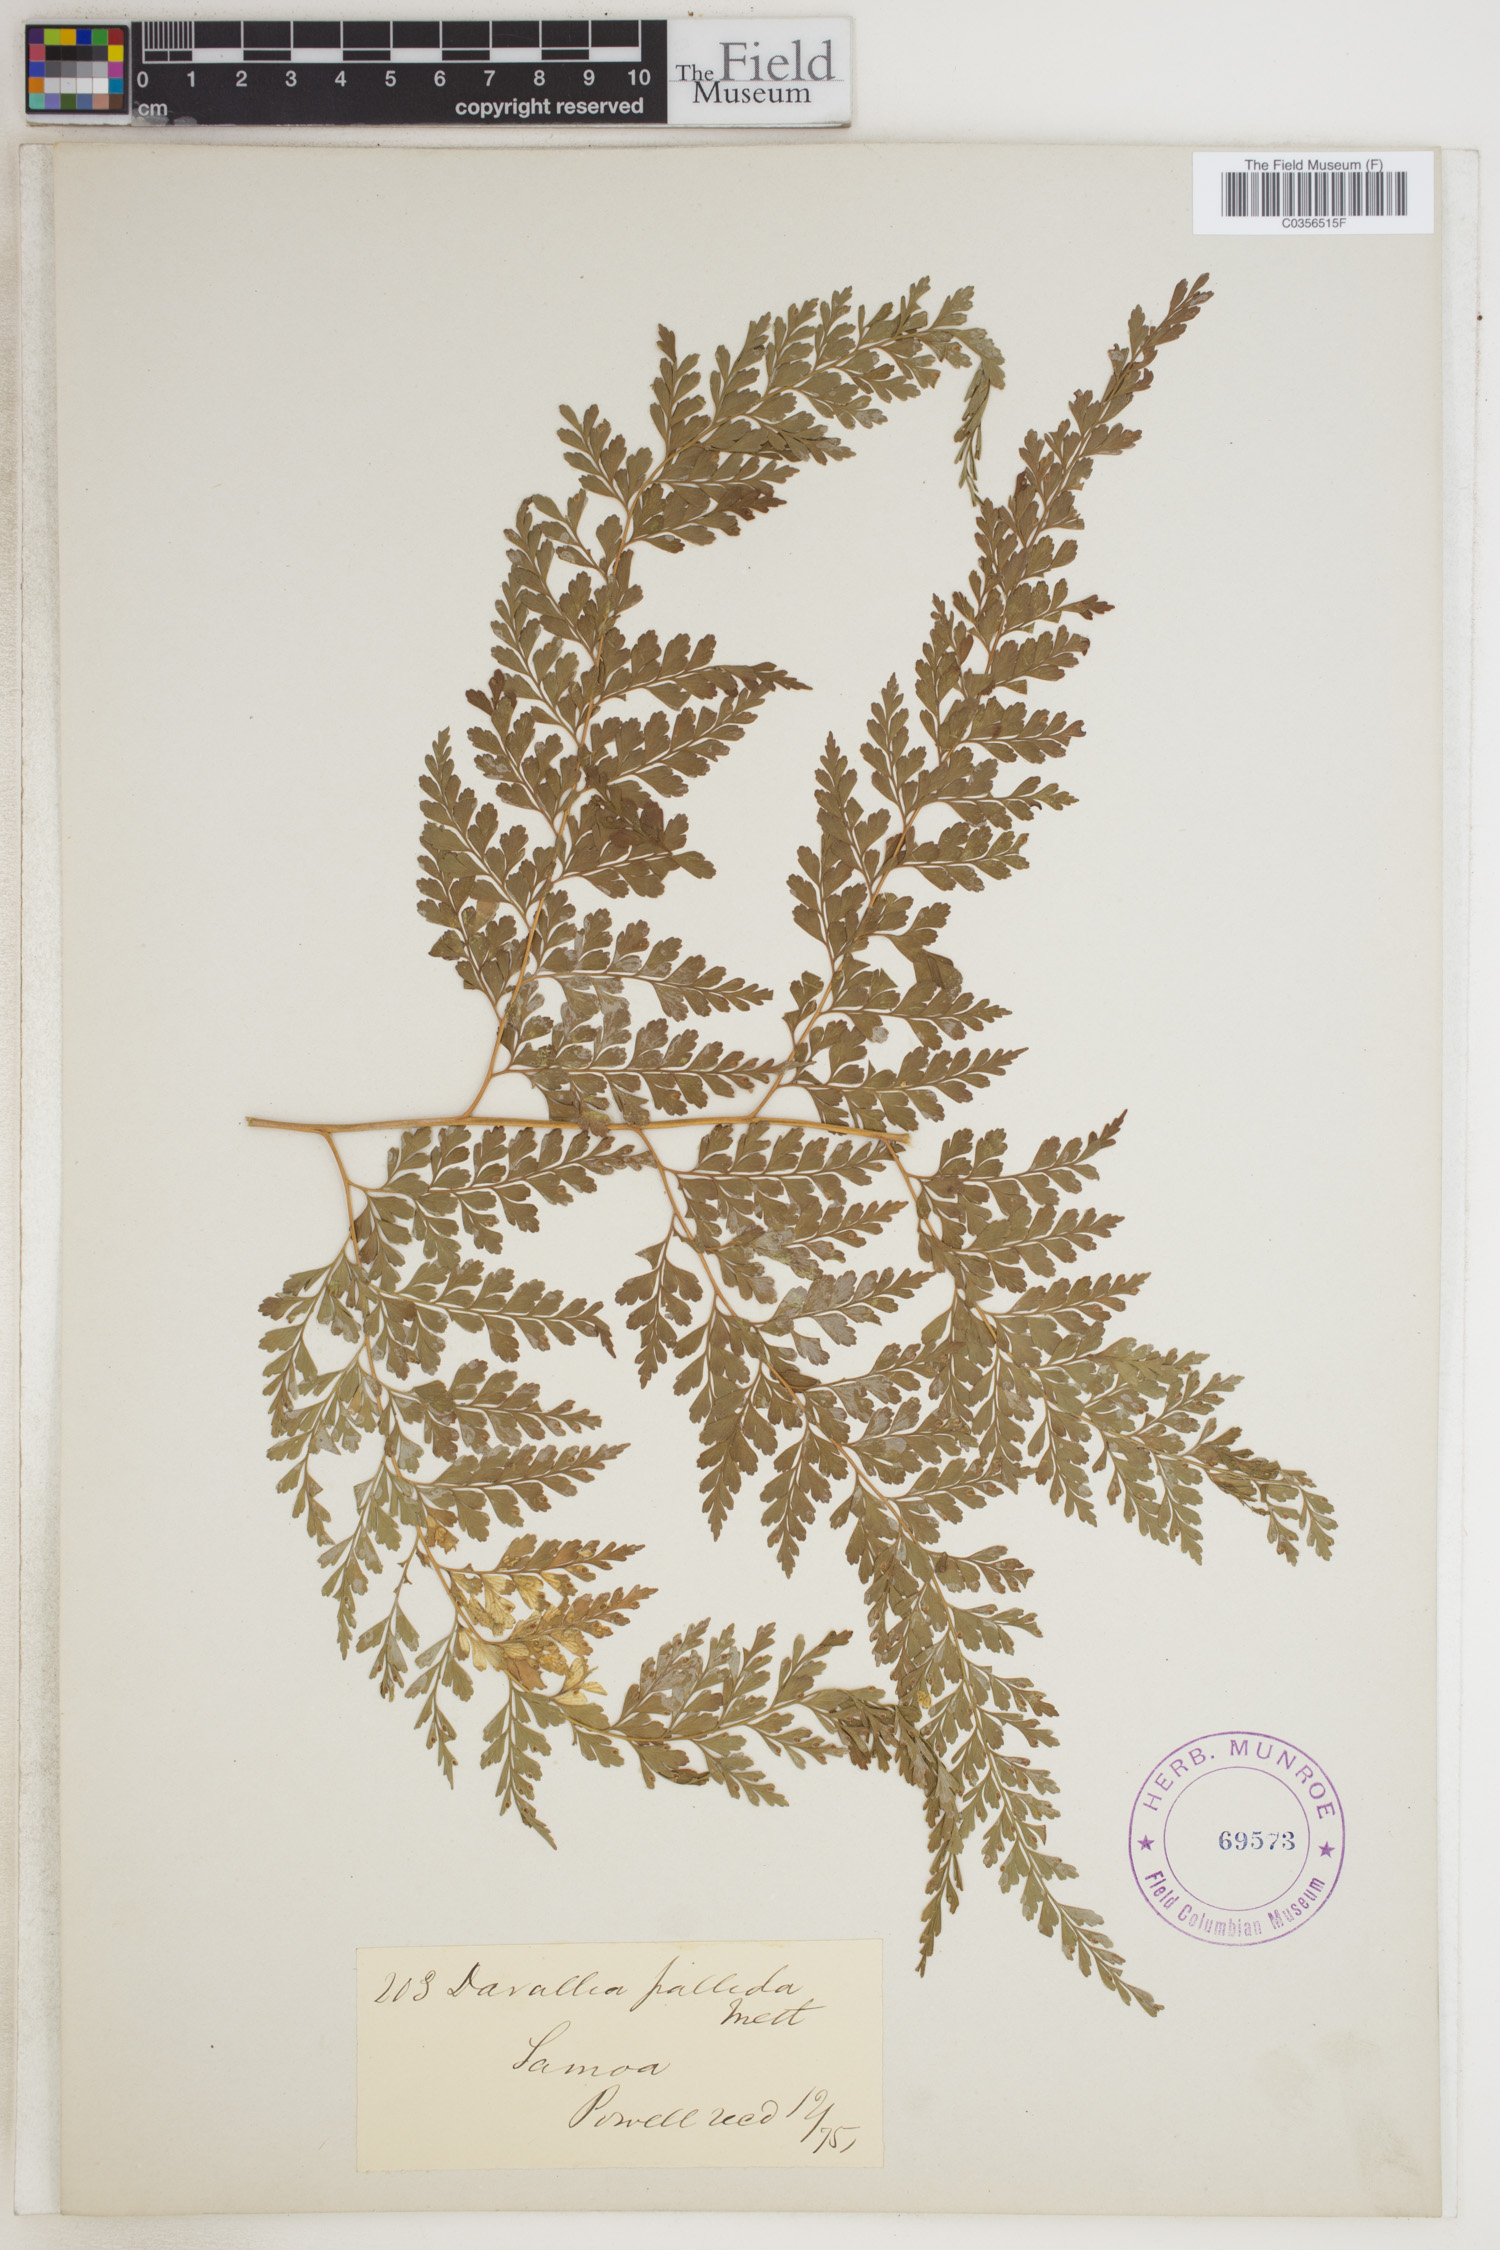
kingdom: Plantae
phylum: Tracheophyta
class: Polypodiopsida
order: Polypodiales
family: Hypodematiaceae
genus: Leucostegia
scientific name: Leucostegia pallida
